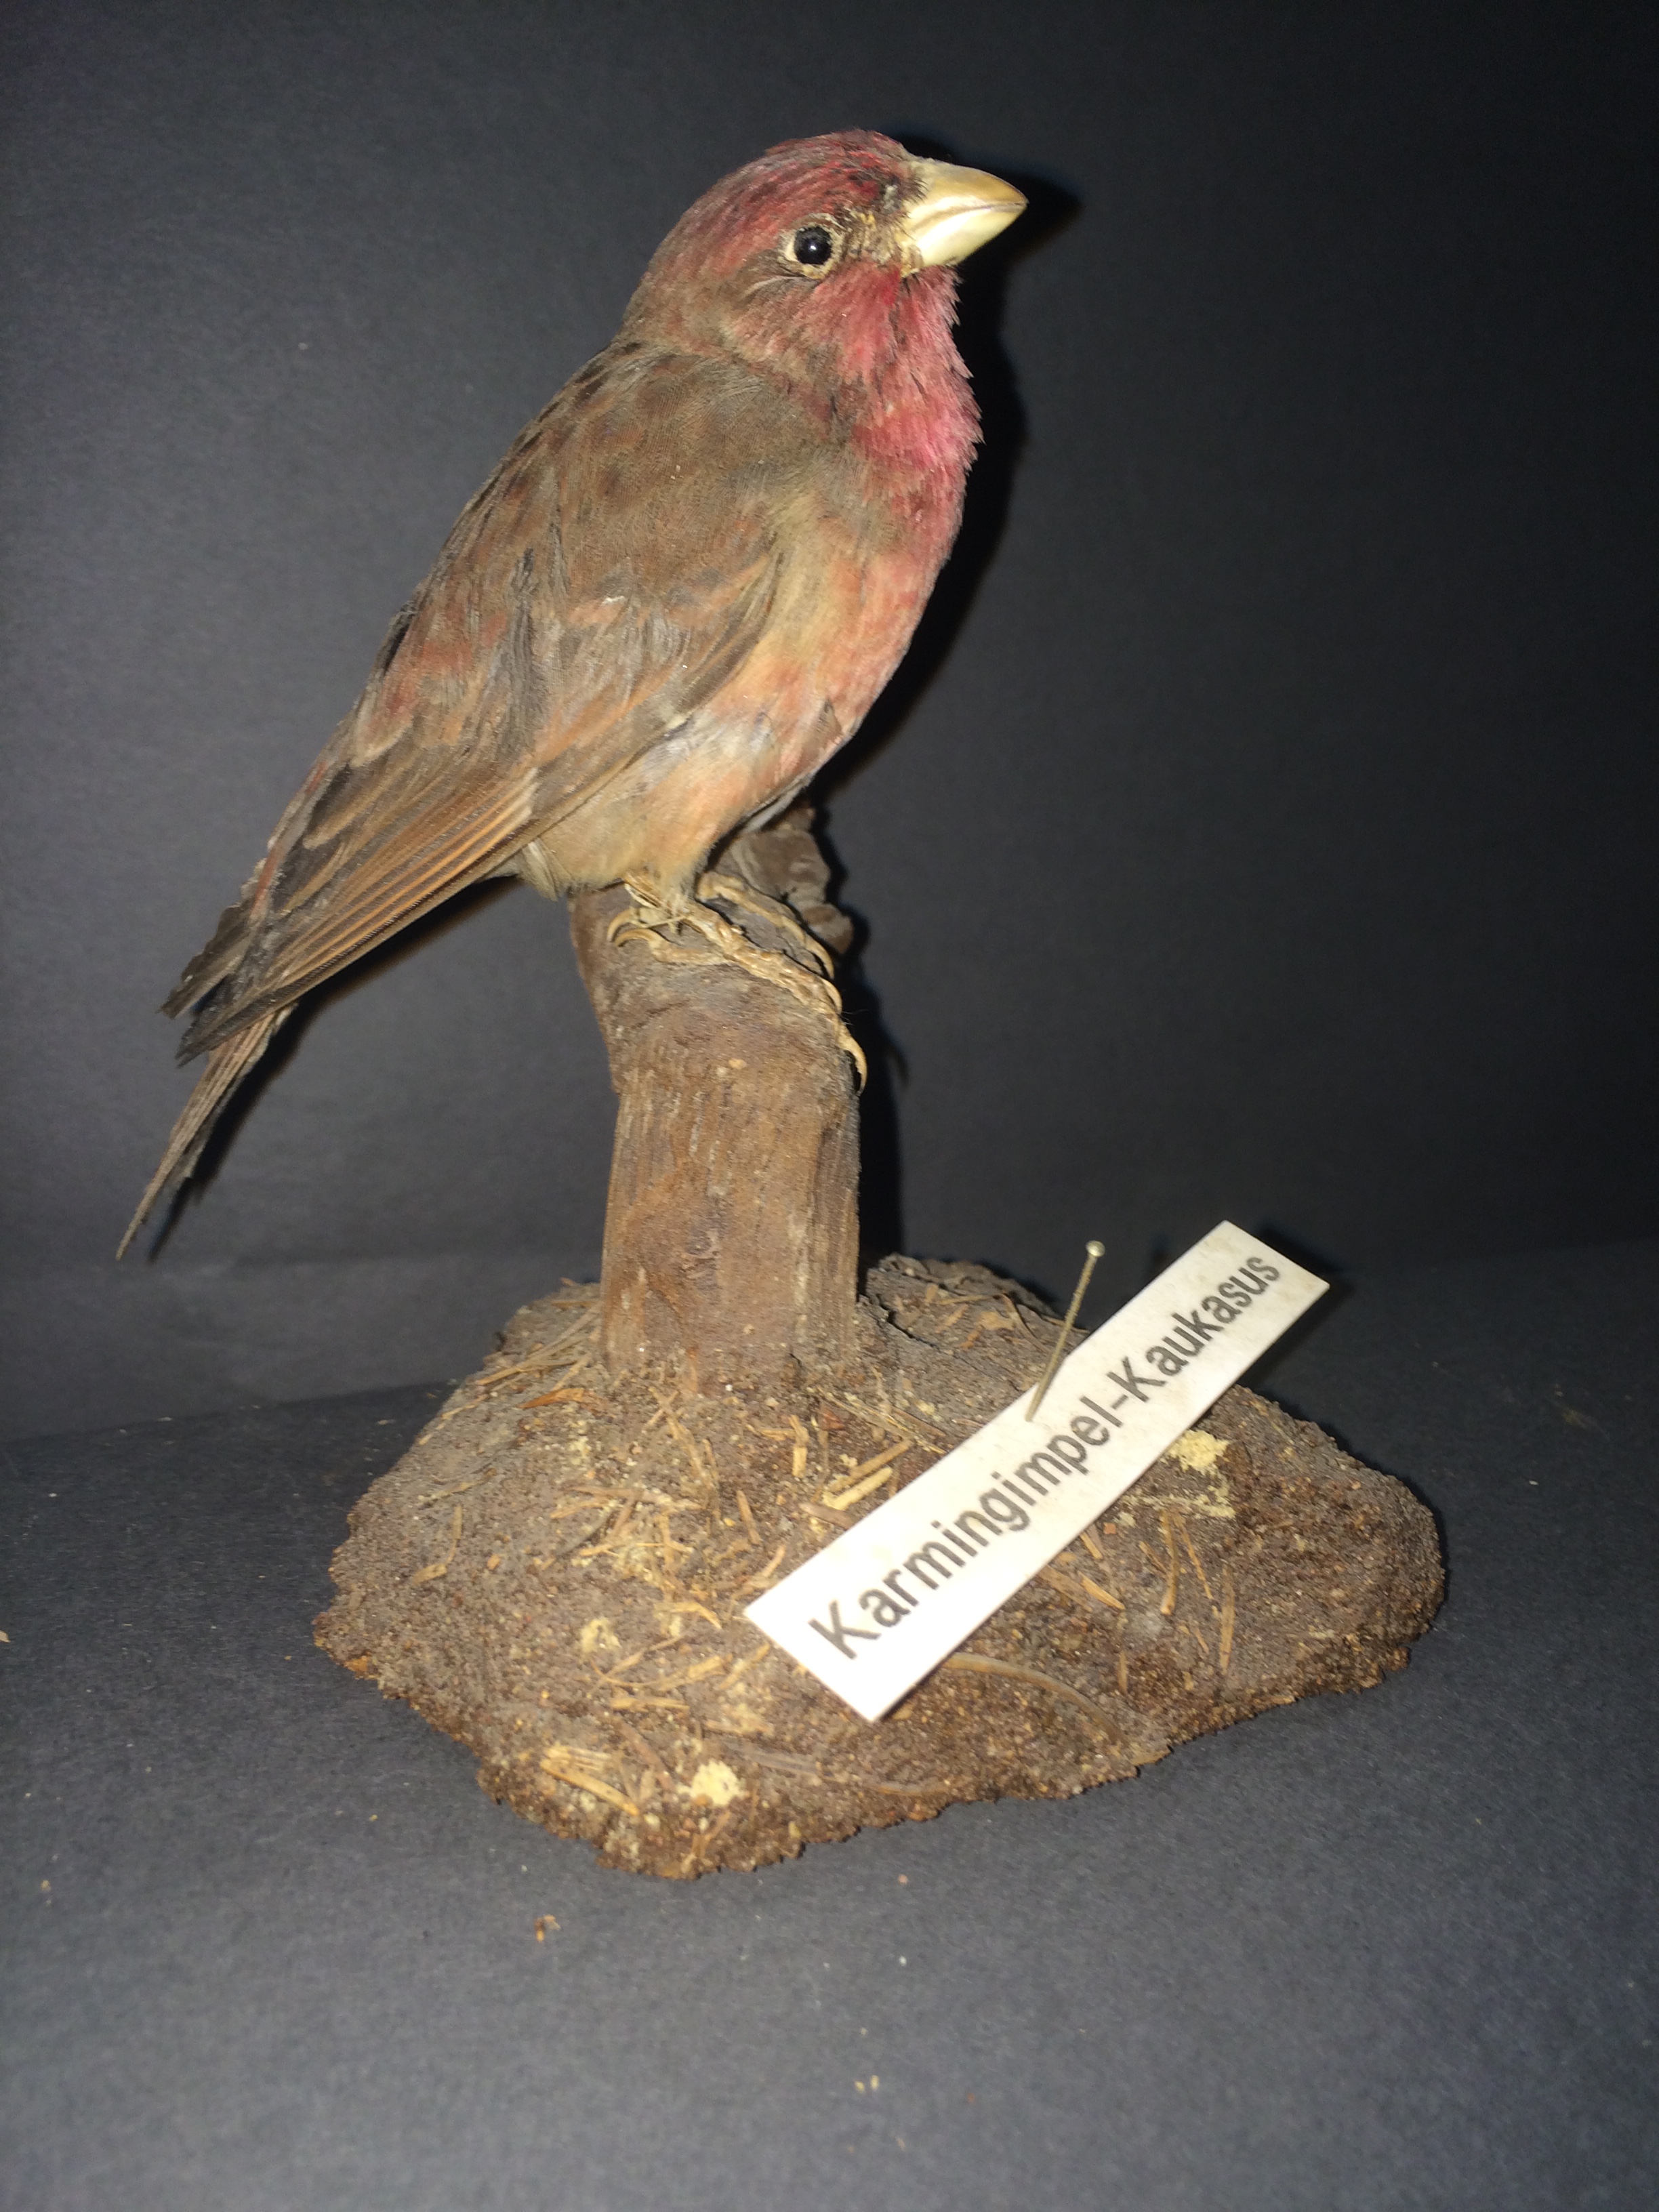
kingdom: Animalia
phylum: Chordata
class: Aves
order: Passeriformes
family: Fringillidae
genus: Carpodacus
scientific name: Carpodacus erythrinus
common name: Common rosefinch
